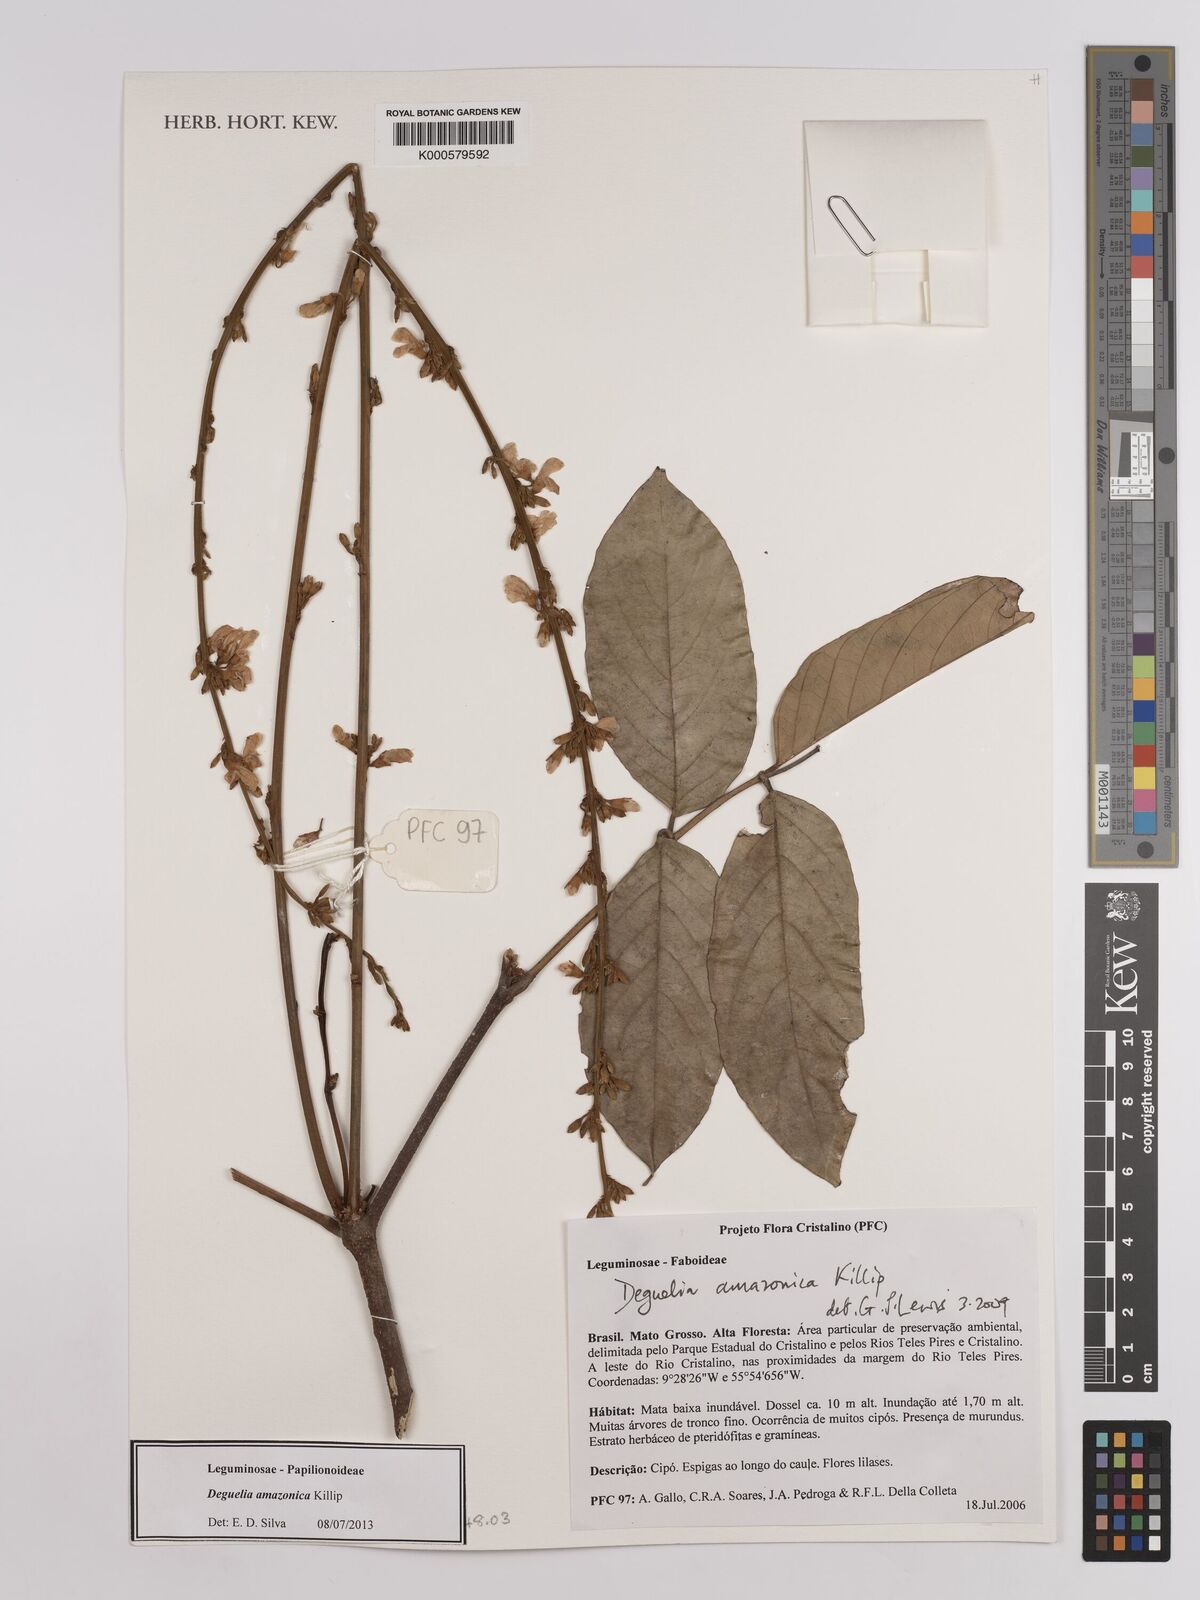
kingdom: Plantae
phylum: Tracheophyta
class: Magnoliopsida
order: Fabales
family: Fabaceae
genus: Deguelia
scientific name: Deguelia amazonica
